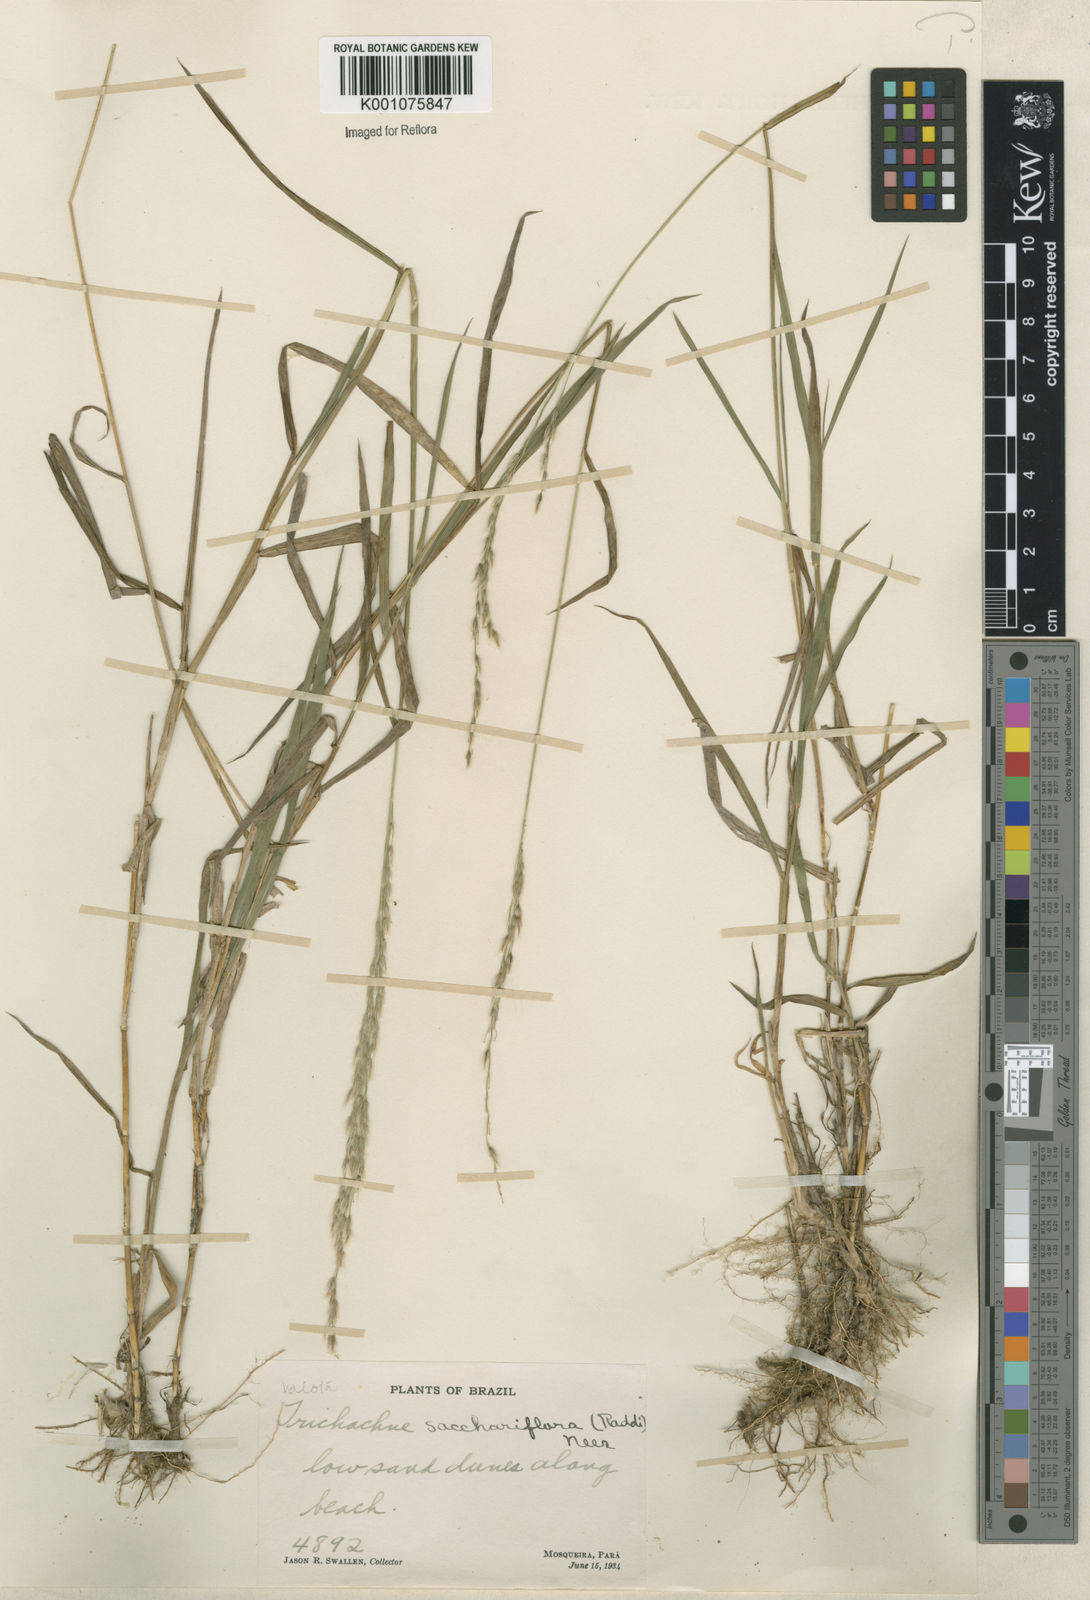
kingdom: Plantae
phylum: Tracheophyta
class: Liliopsida
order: Poales
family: Poaceae
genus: Digitaria
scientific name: Digitaria
